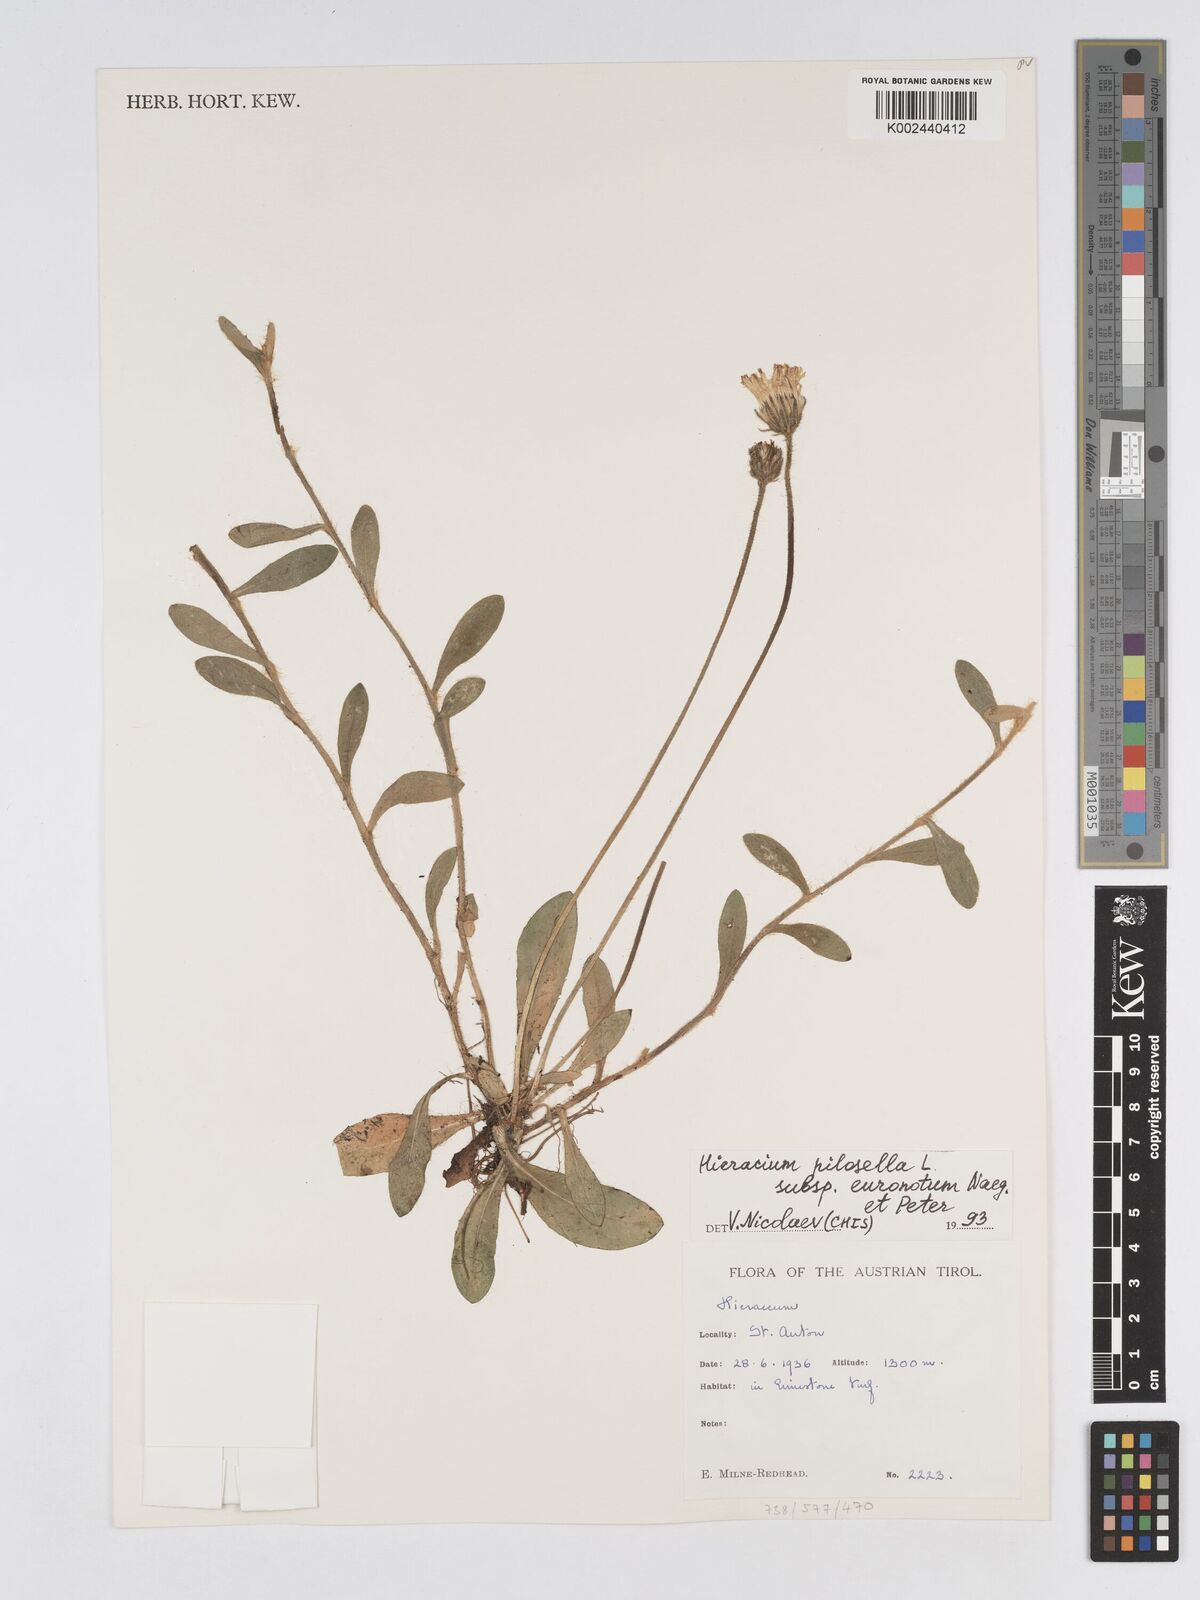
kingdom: Plantae
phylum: Tracheophyta
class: Magnoliopsida
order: Asterales
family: Asteraceae
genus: Pilosella
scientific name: Pilosella officinarum
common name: Mouse-ear hawkweed
